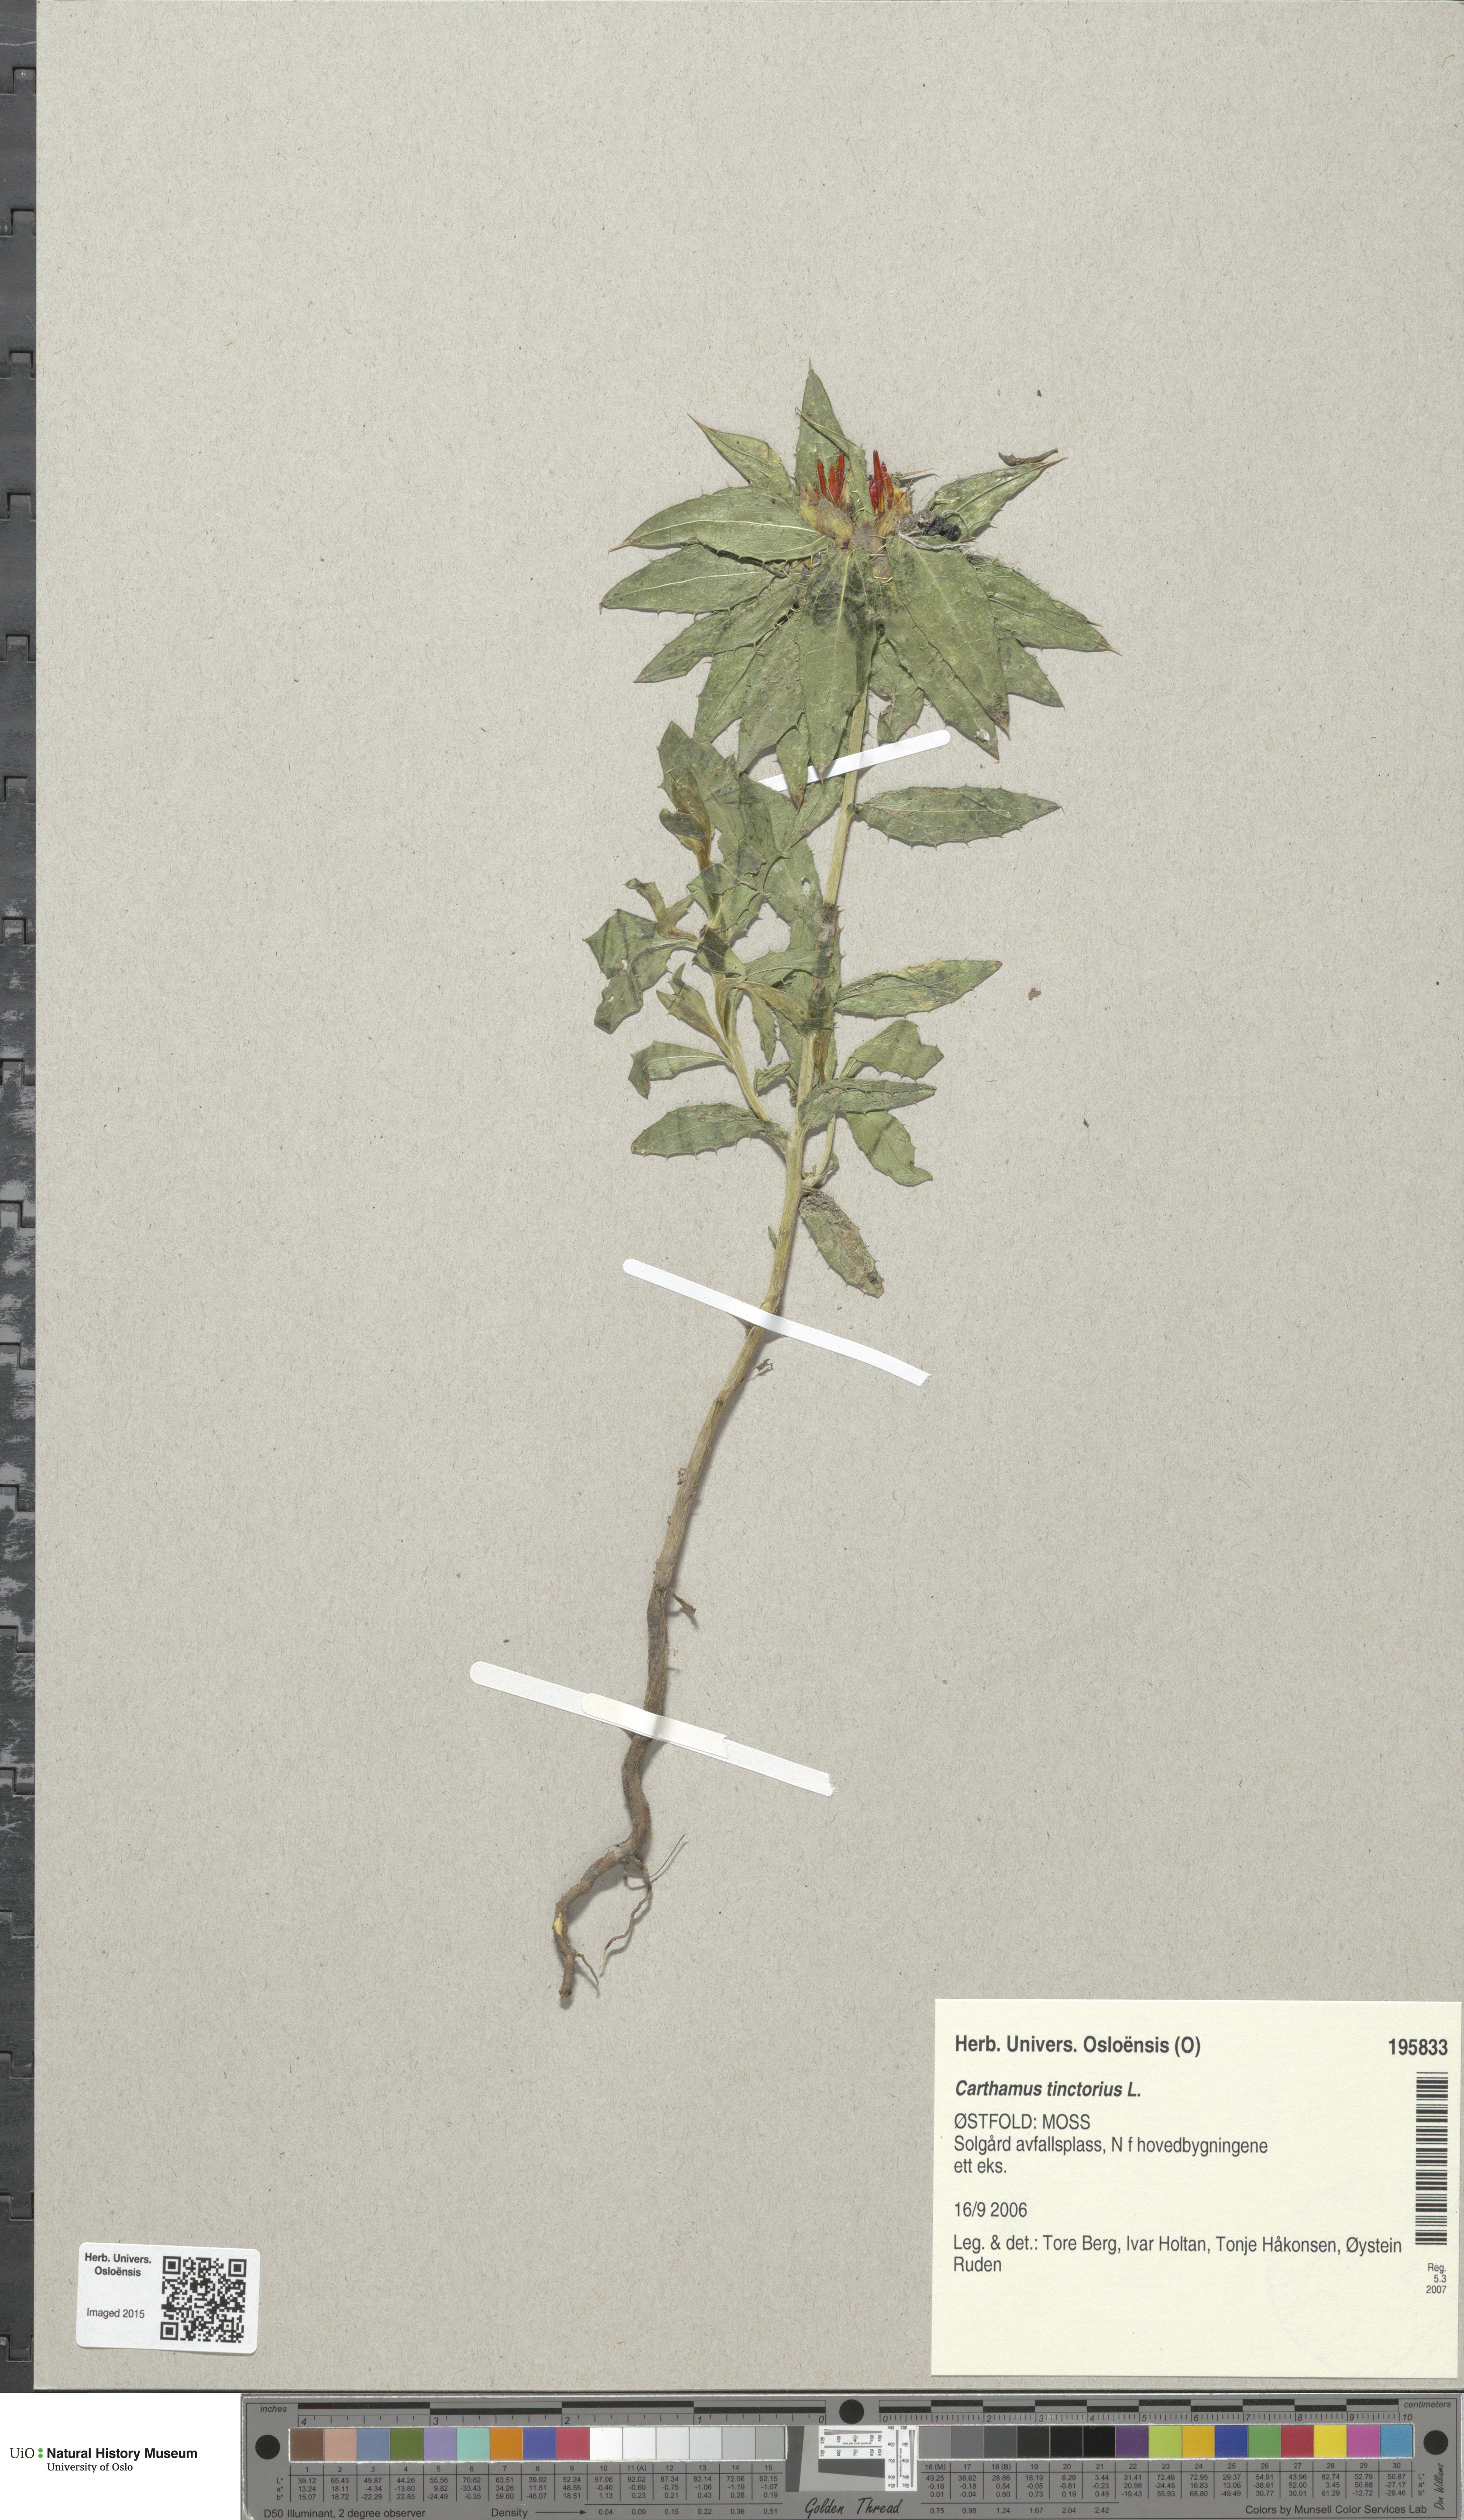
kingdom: Plantae
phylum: Tracheophyta
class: Magnoliopsida
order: Asterales
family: Asteraceae
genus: Carthamus
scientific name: Carthamus tinctorius
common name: Safflower
